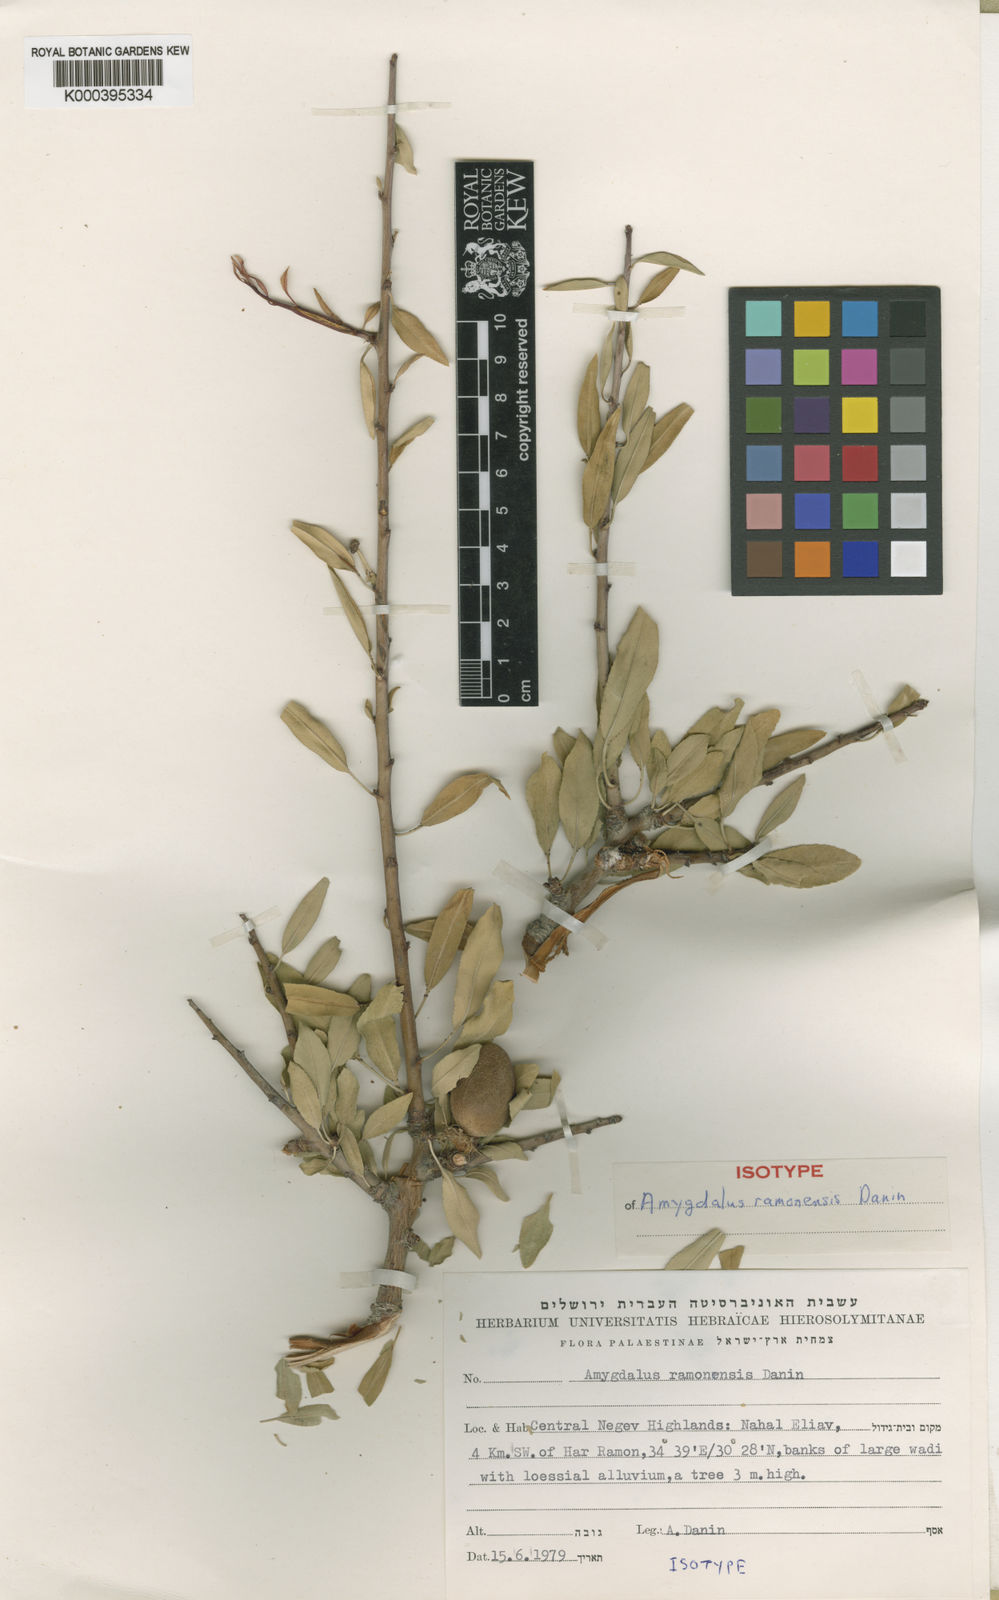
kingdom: Plantae
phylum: Tracheophyta
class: Magnoliopsida
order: Rosales
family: Rosaceae
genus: Prunus
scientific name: Prunus
